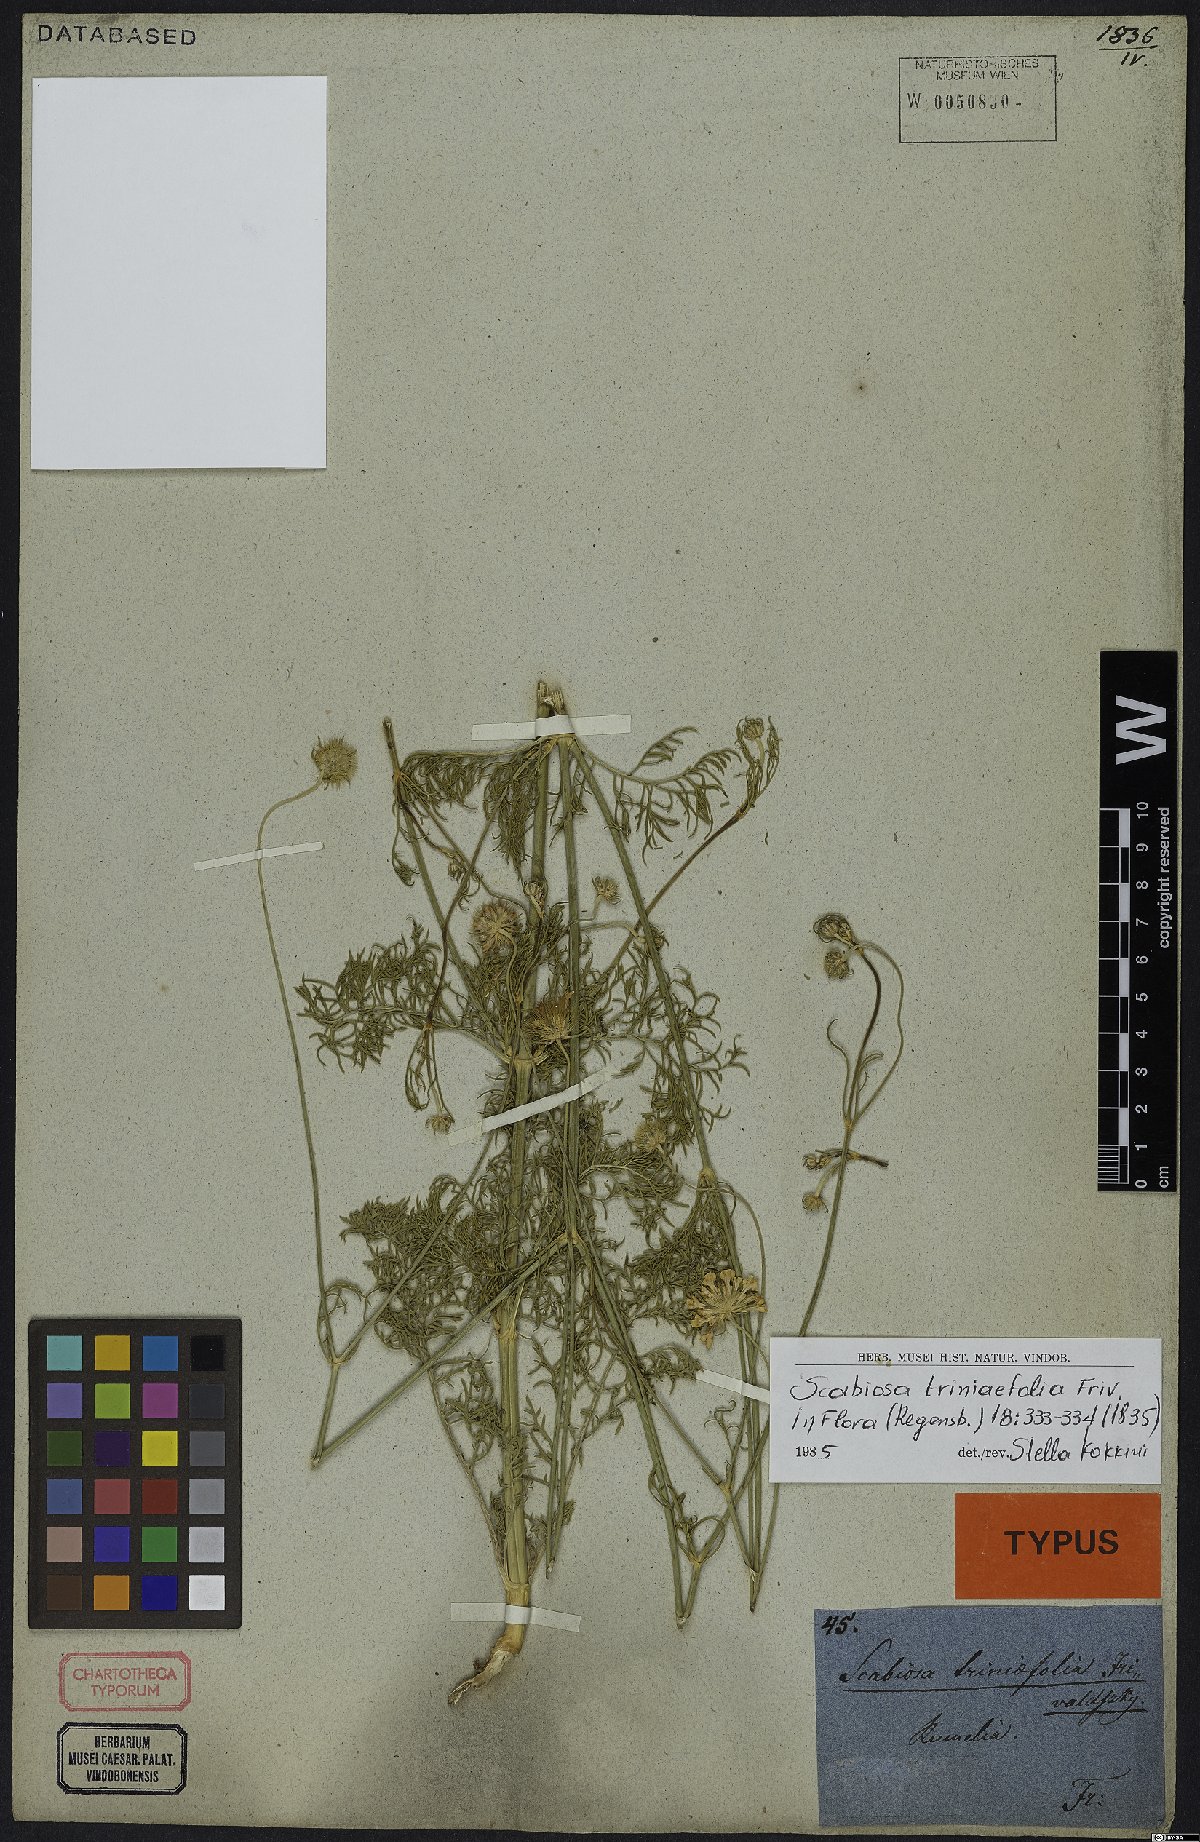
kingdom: Plantae
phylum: Tracheophyta
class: Magnoliopsida
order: Dipsacales
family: Caprifoliaceae
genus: Scabiosa
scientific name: Scabiosa triniifolia
